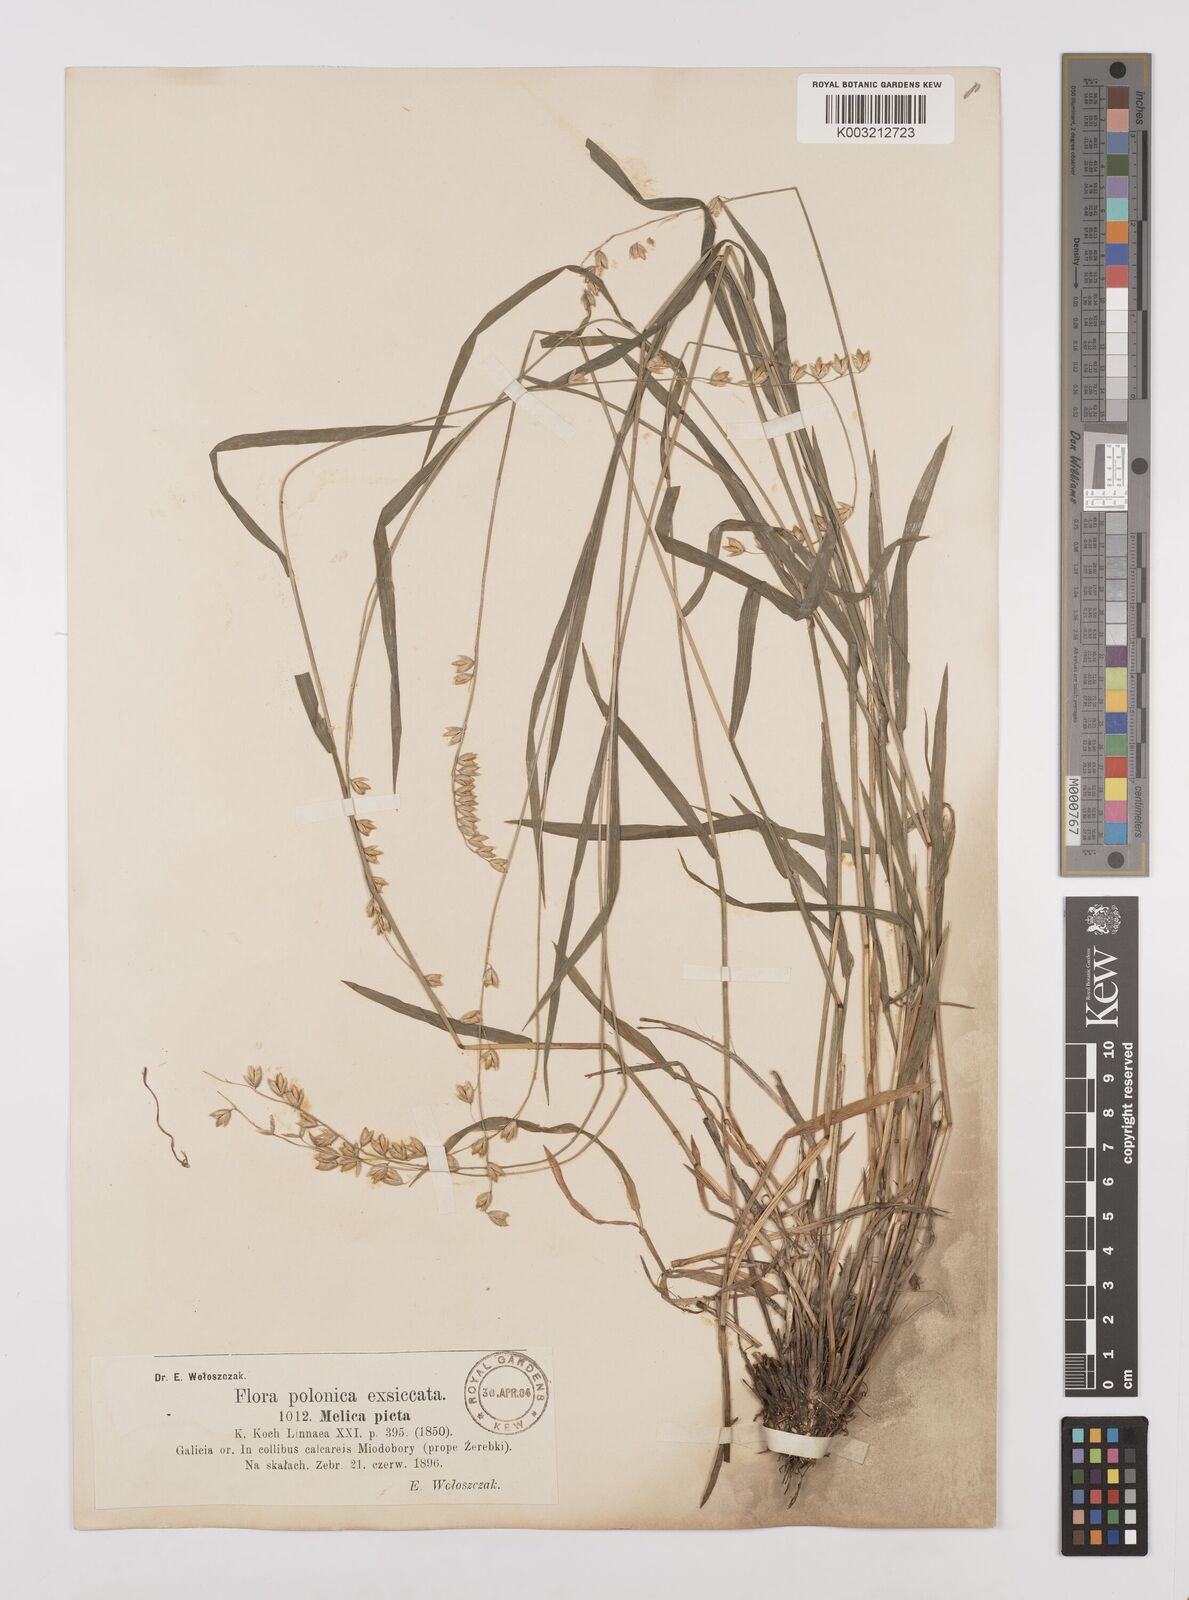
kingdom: Plantae
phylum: Tracheophyta
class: Liliopsida
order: Poales
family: Poaceae
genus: Melica
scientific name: Melica picta
